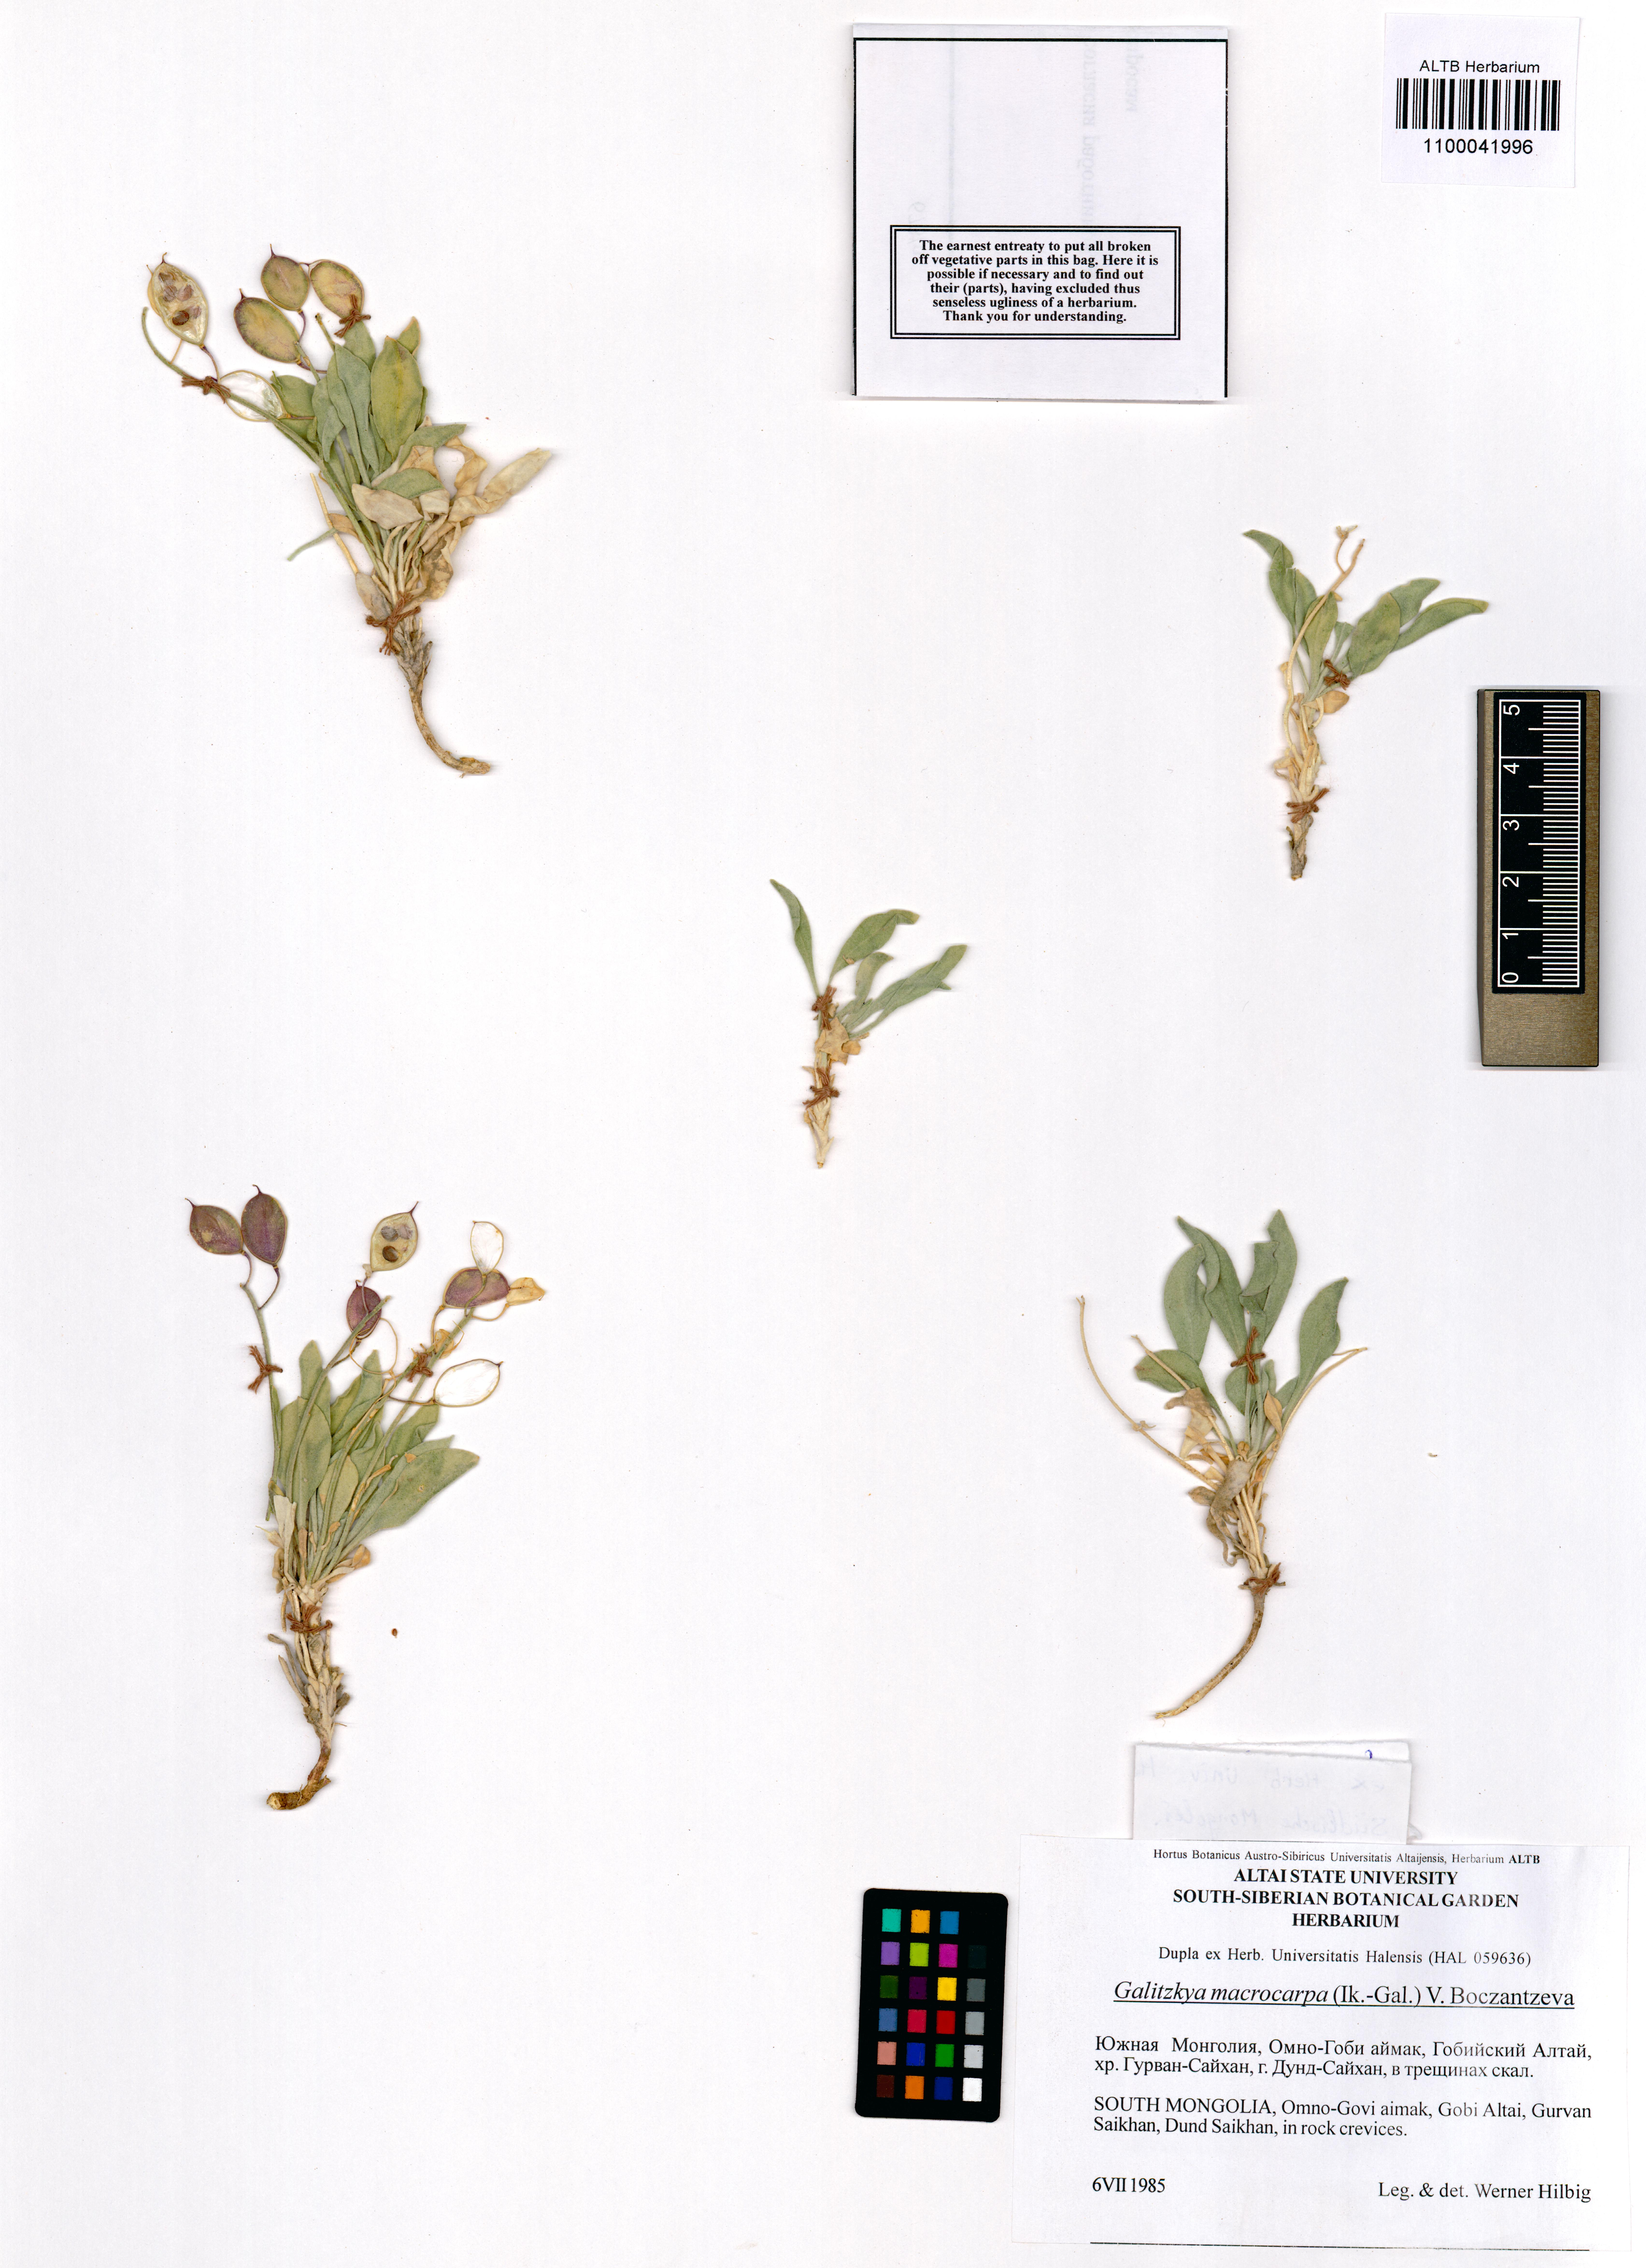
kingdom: Plantae
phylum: Tracheophyta
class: Magnoliopsida
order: Brassicales
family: Brassicaceae
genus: Galitzkya
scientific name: Galitzkya macrocarpa
